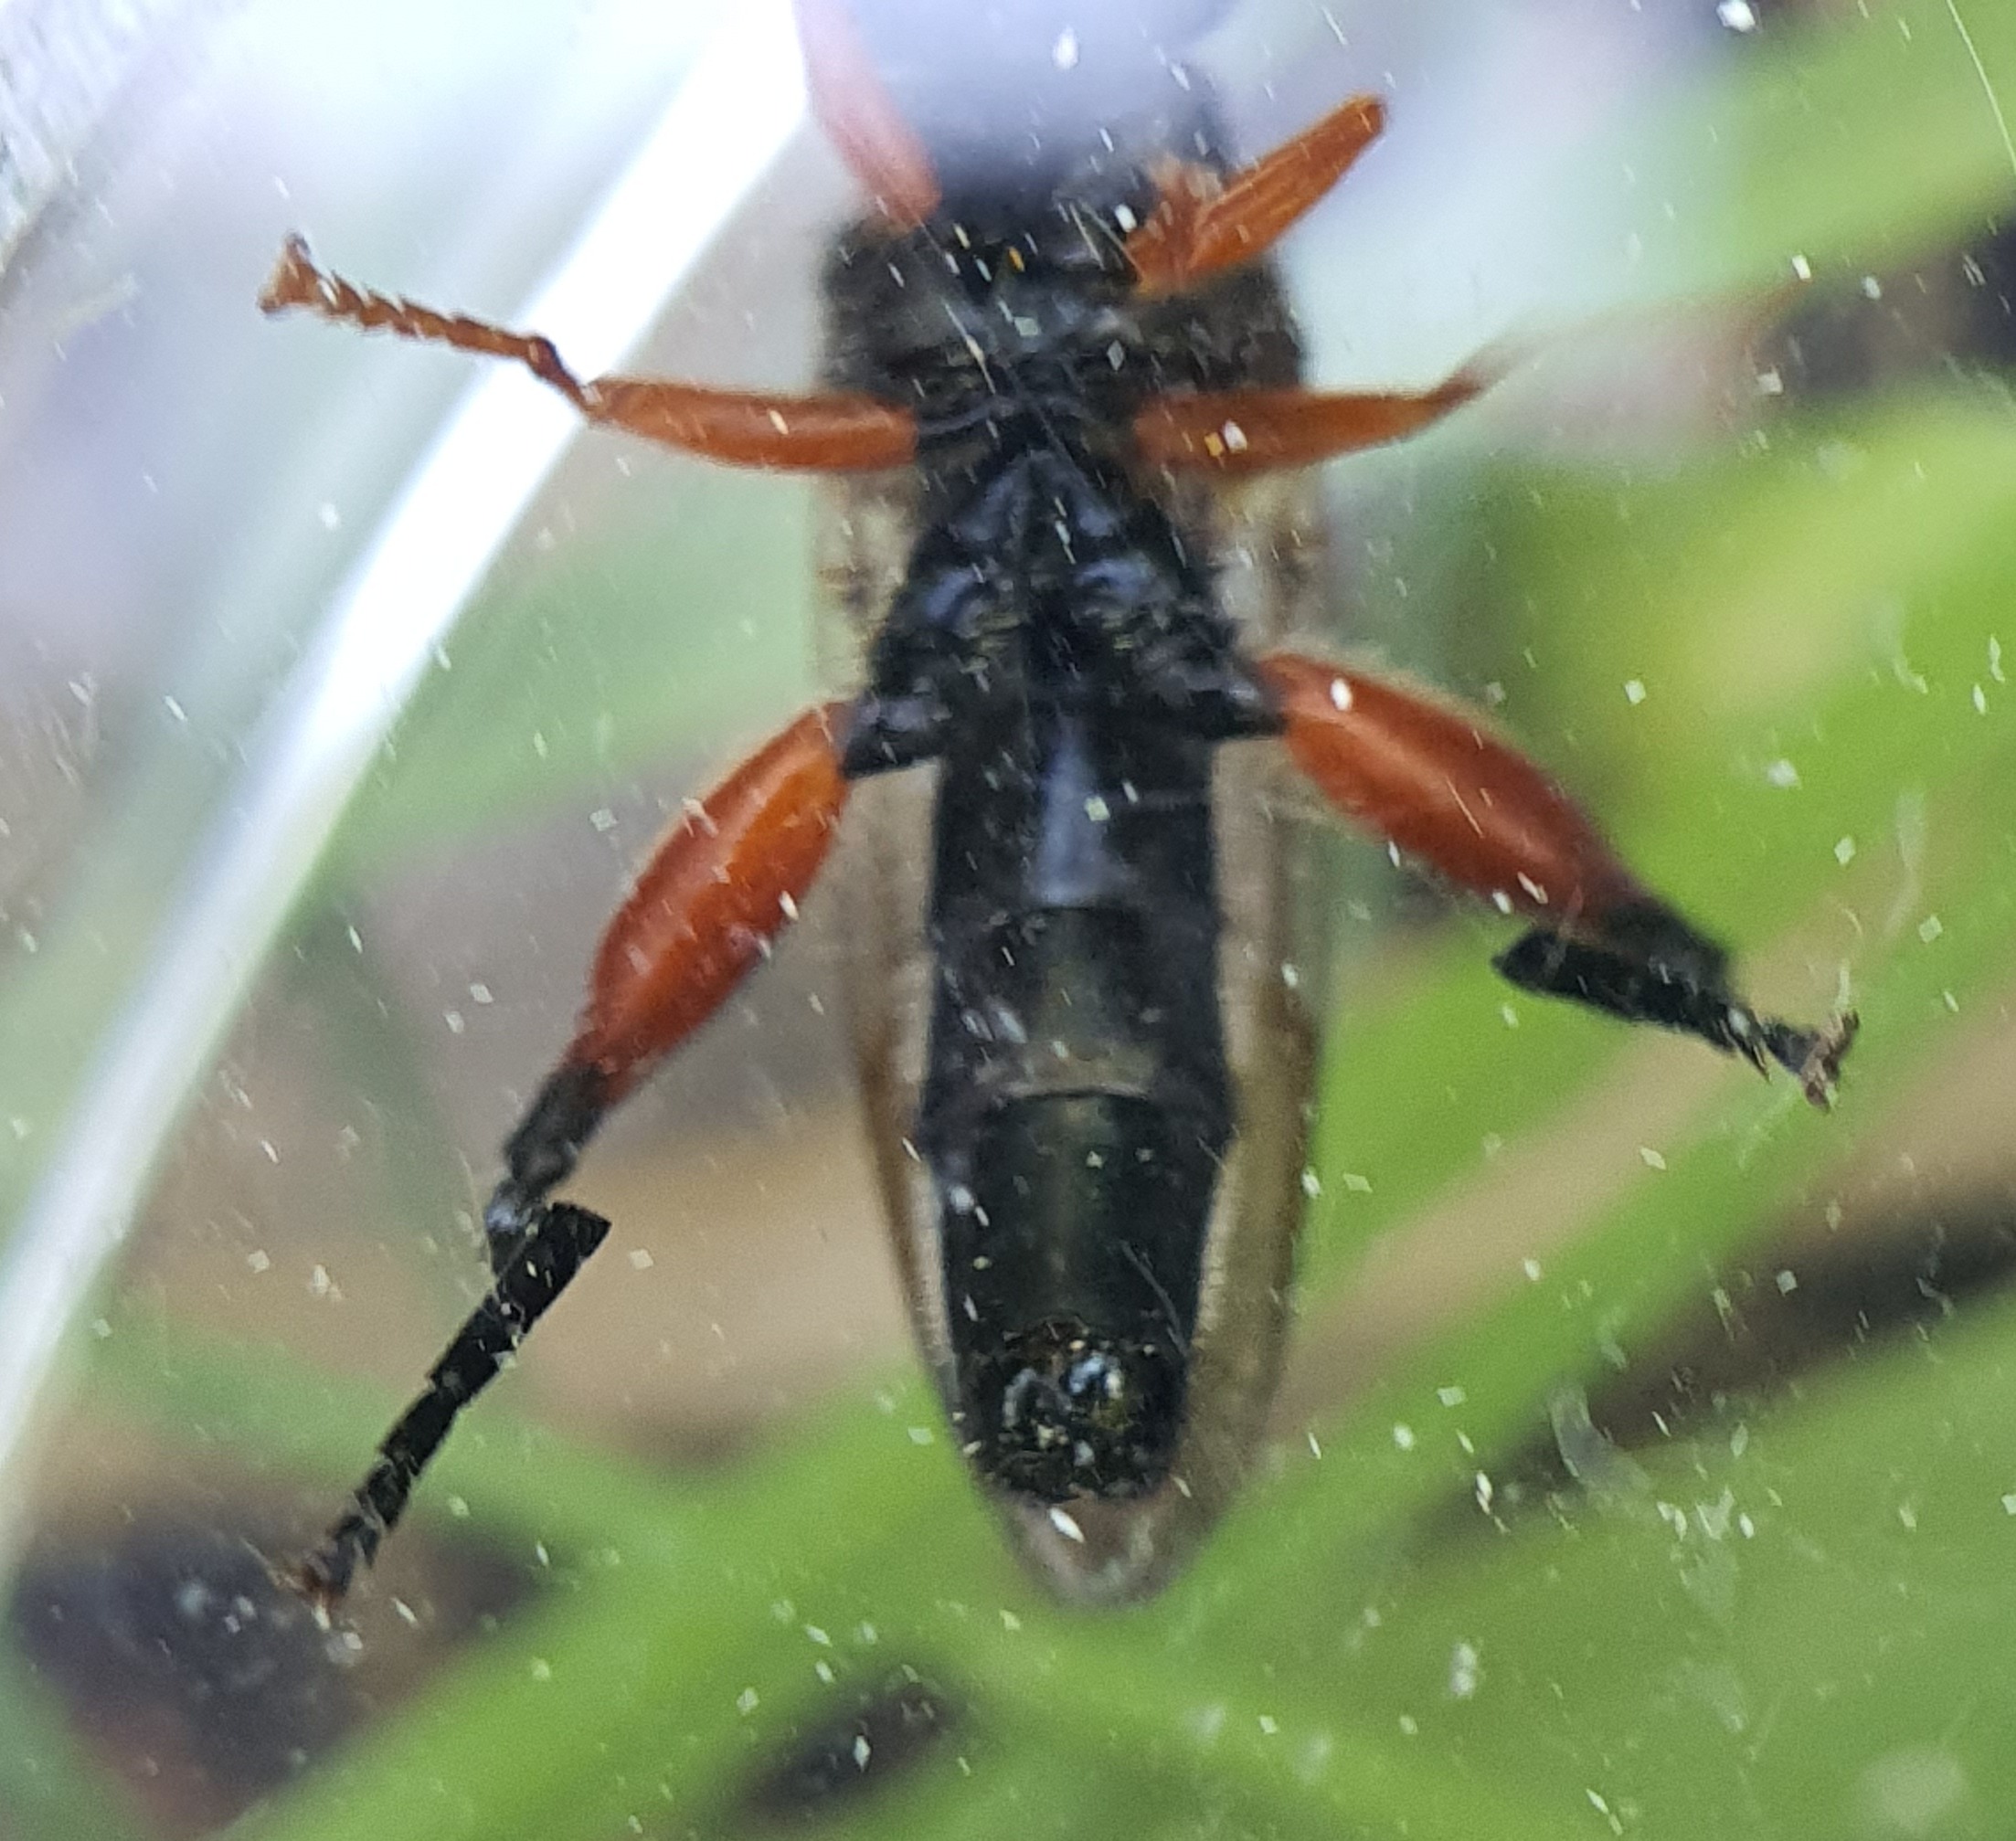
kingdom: Animalia
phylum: Arthropoda
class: Insecta
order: Diptera
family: Syrphidae
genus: Chalcosyrphus
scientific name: Chalcosyrphus valgus
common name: Sort træsmuldsvirreflue
